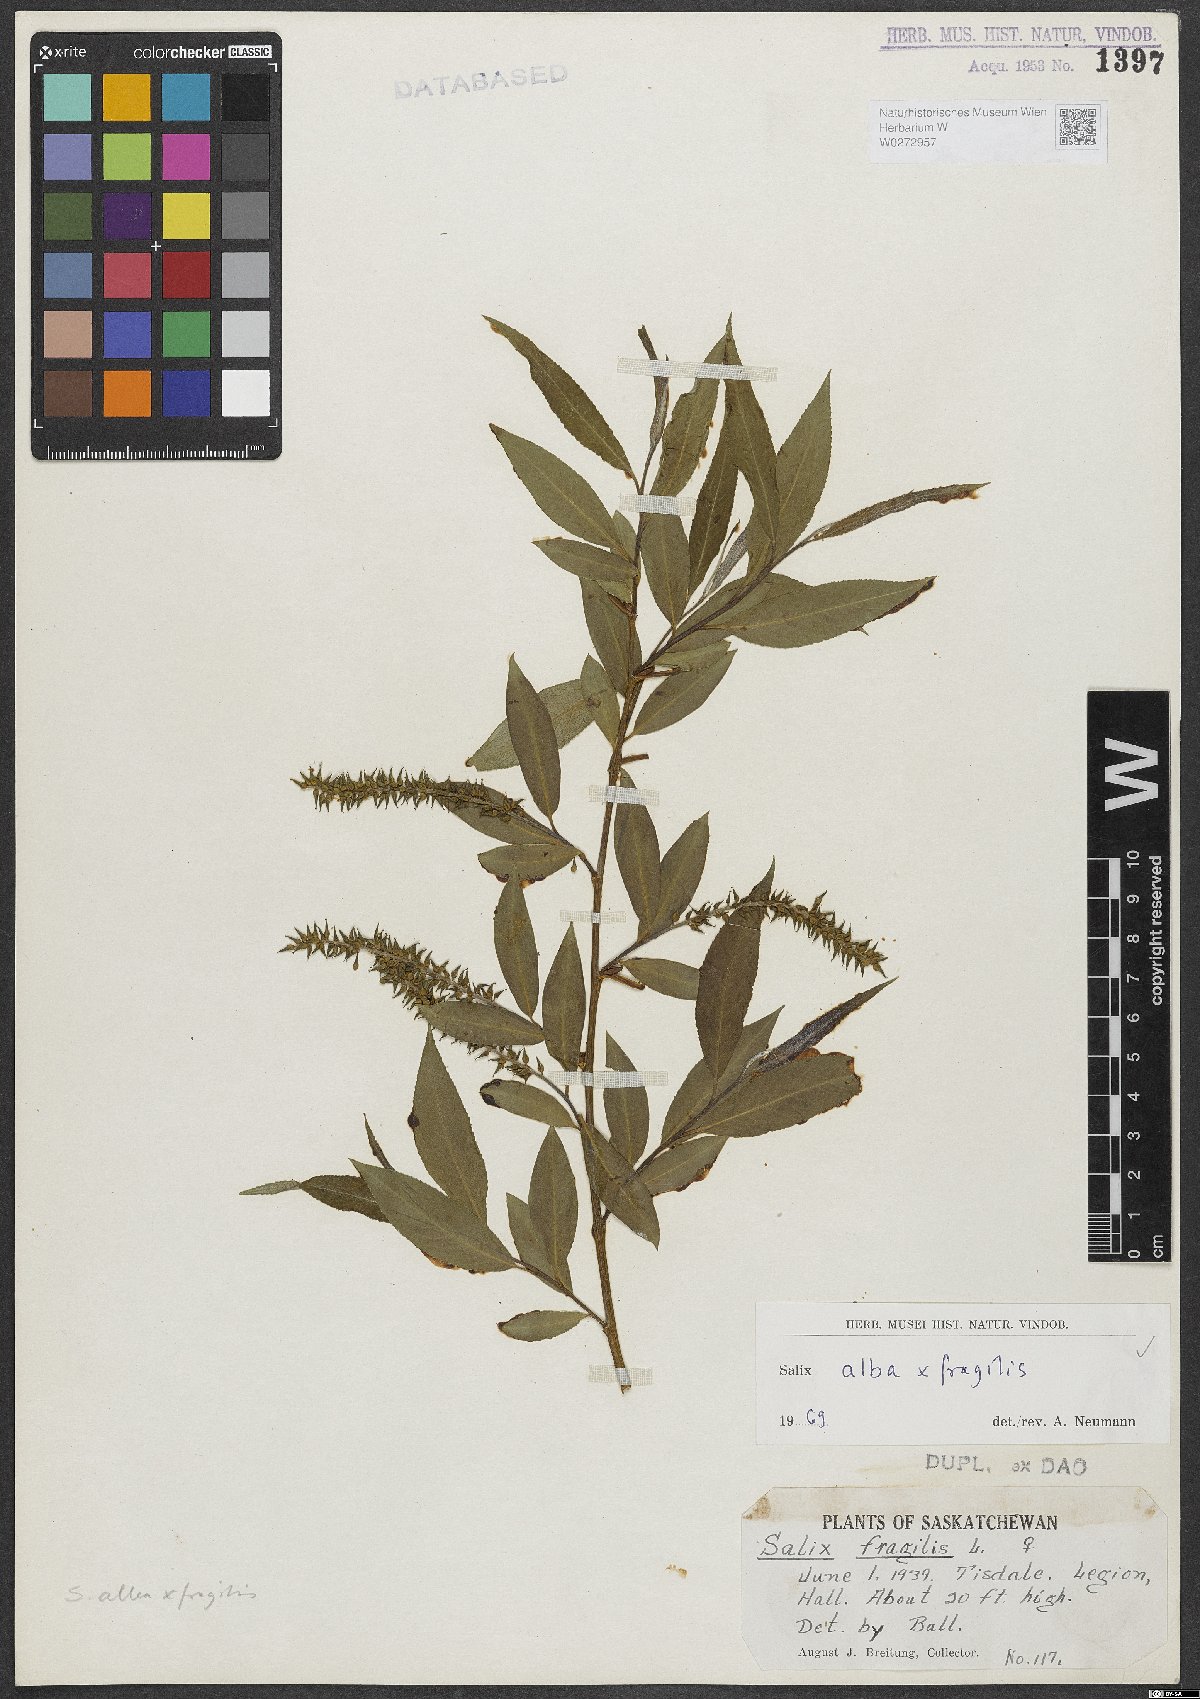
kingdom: Plantae
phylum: Tracheophyta
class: Magnoliopsida
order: Malpighiales
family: Salicaceae
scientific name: Salicaceae
